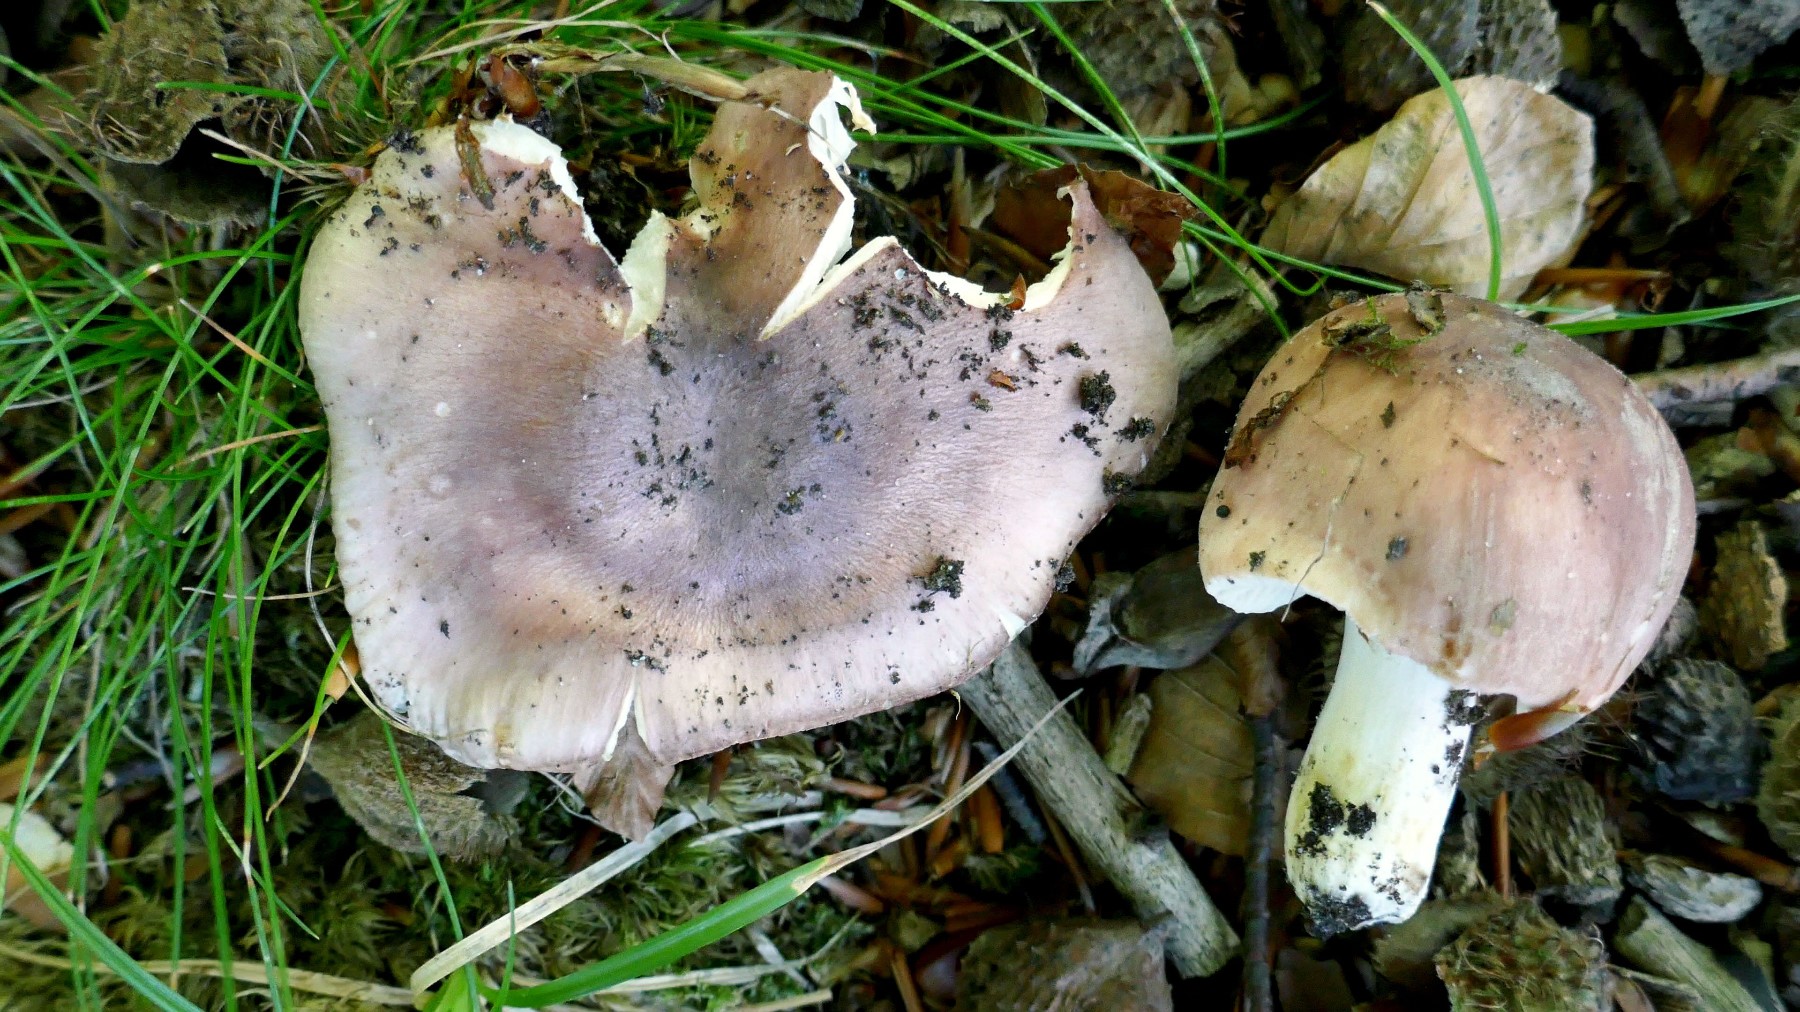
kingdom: Fungi
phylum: Basidiomycota
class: Agaricomycetes
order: Russulales
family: Russulaceae
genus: Russula
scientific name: Russula vesca
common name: spiselig skørhat
